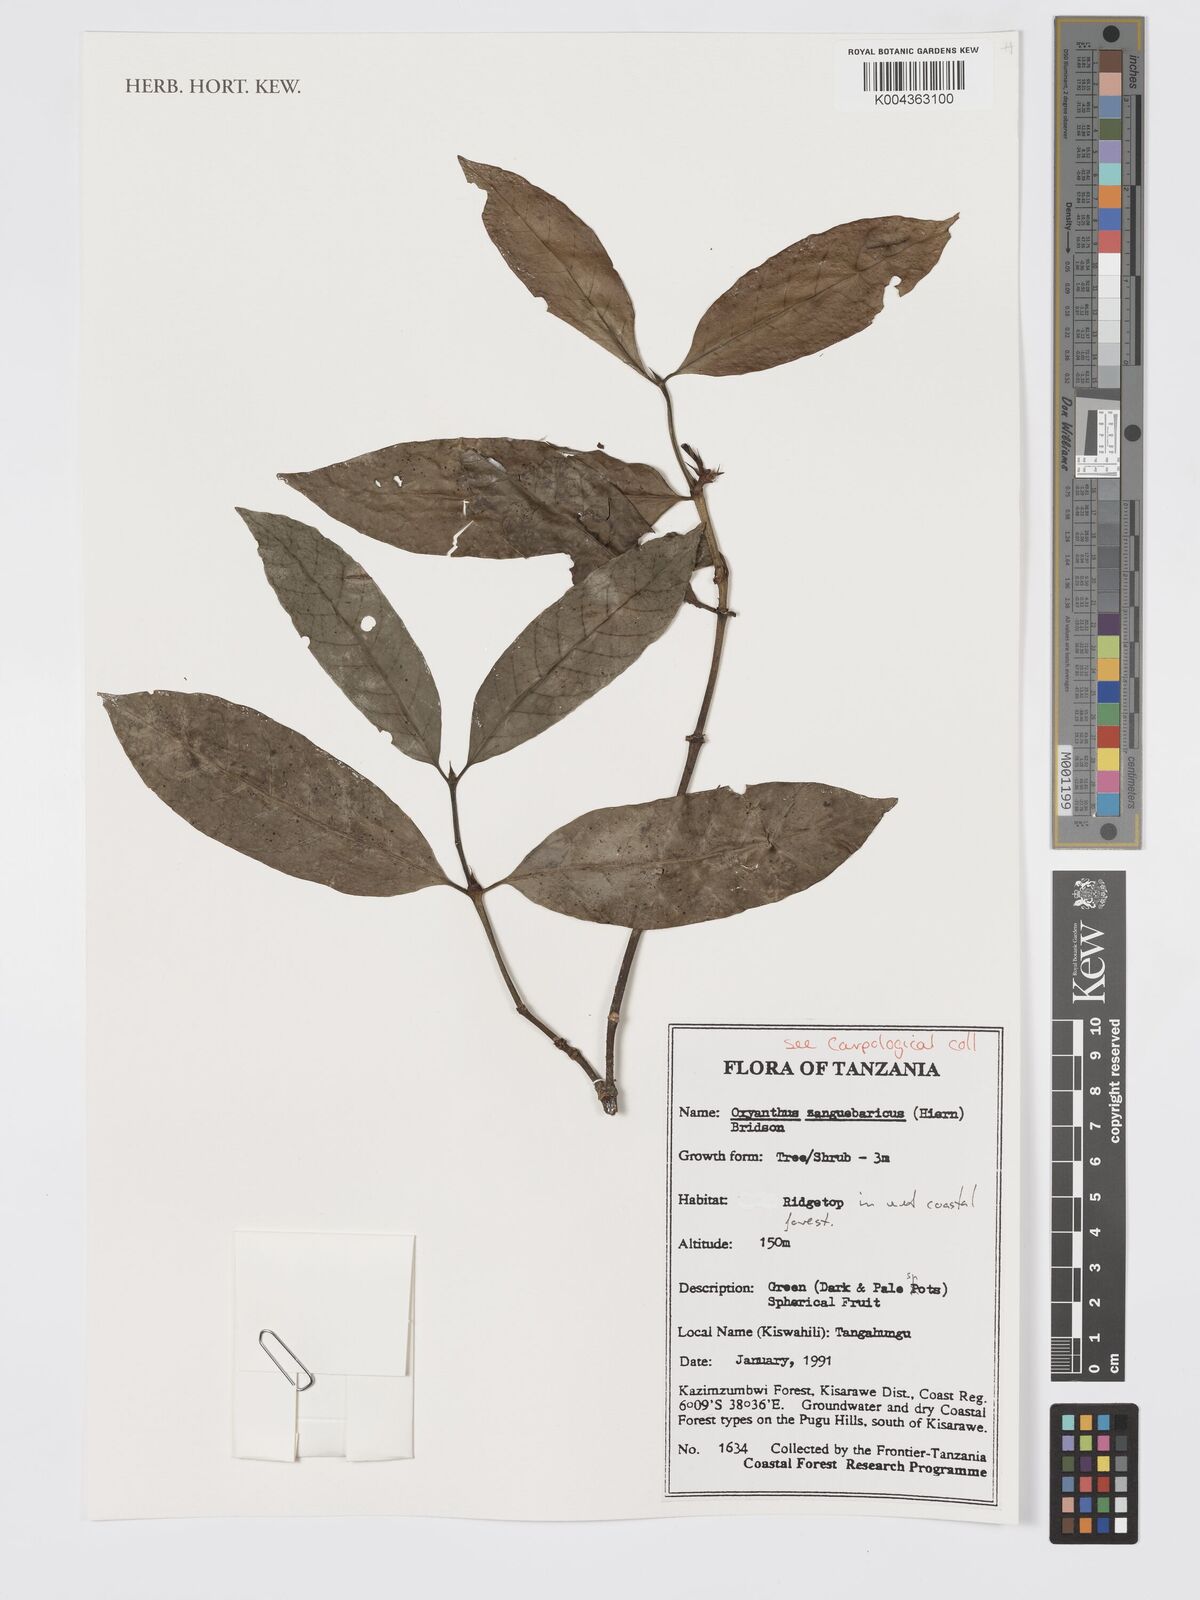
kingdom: Plantae
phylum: Tracheophyta
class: Magnoliopsida
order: Gentianales
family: Rubiaceae
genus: Oxyanthus
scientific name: Oxyanthus zanguebaricus
